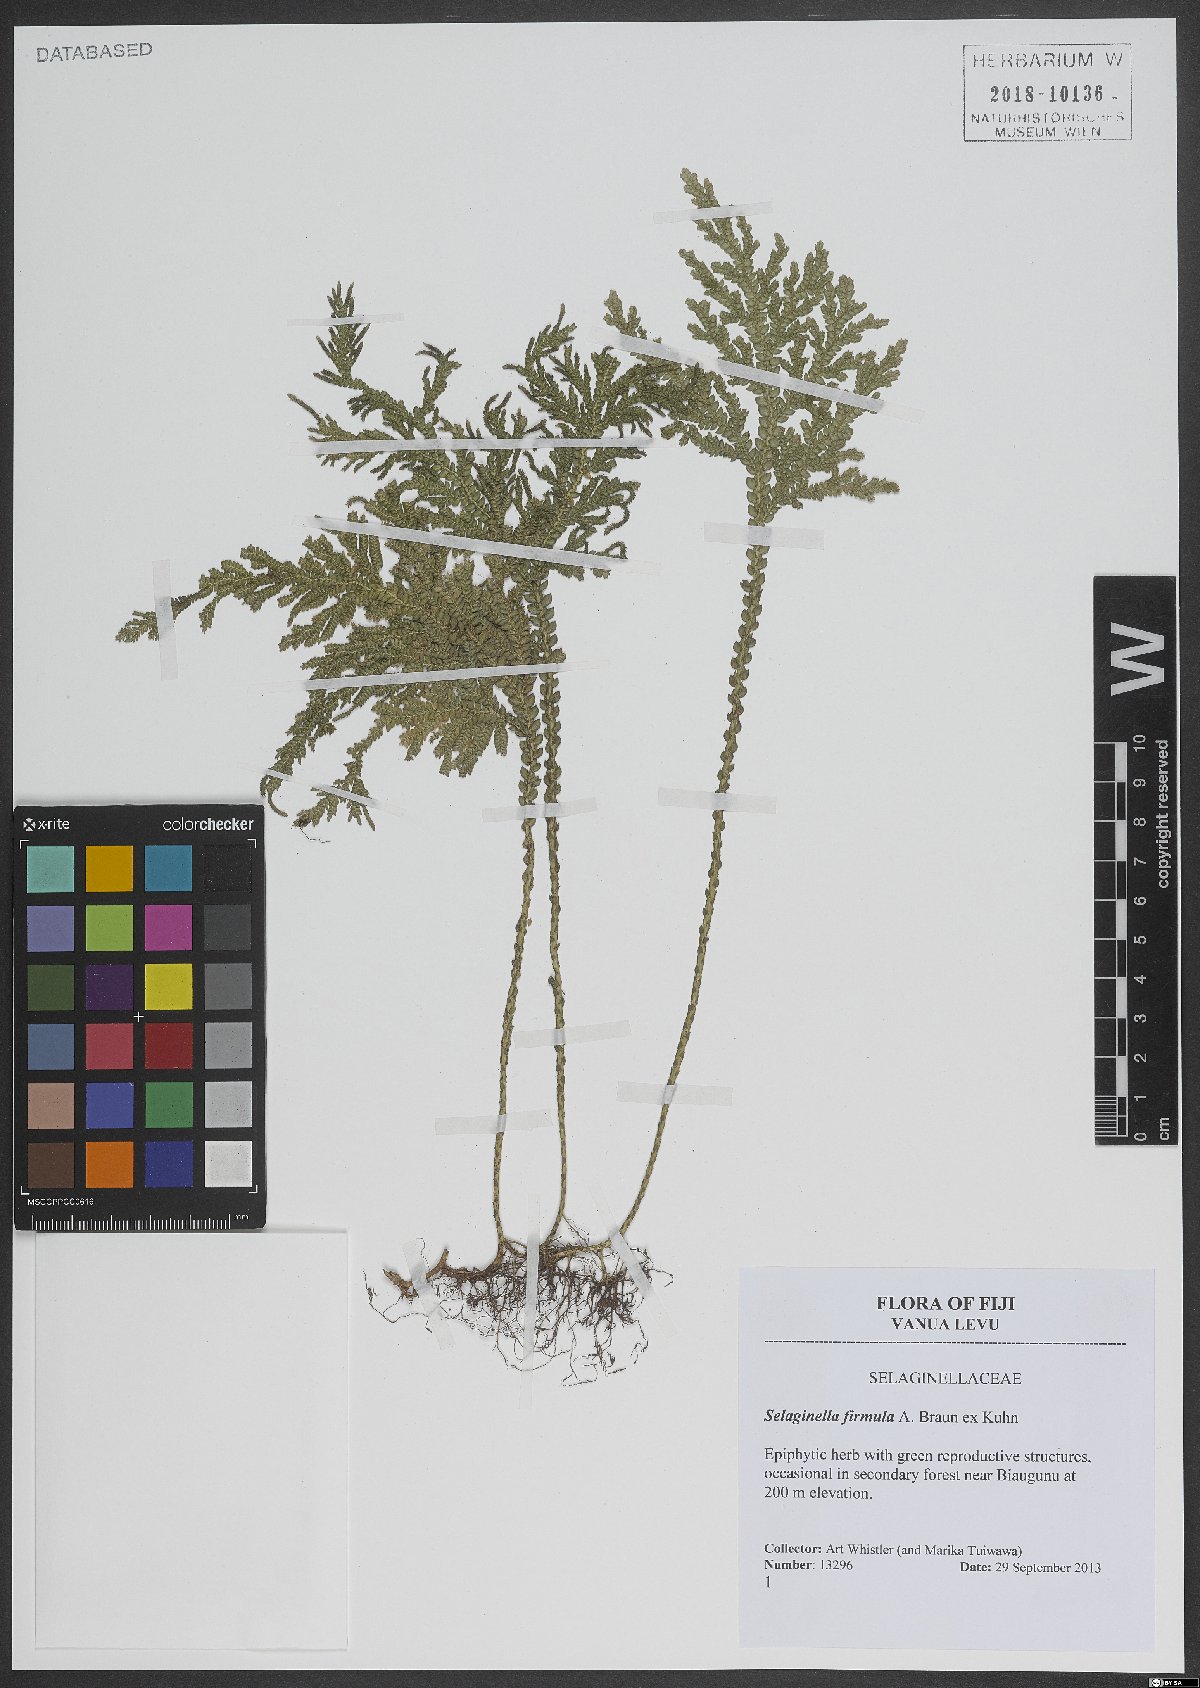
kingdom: Plantae
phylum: Tracheophyta
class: Lycopodiopsida
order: Selaginellales
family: Selaginellaceae
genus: Selaginella
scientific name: Selaginella firmula
